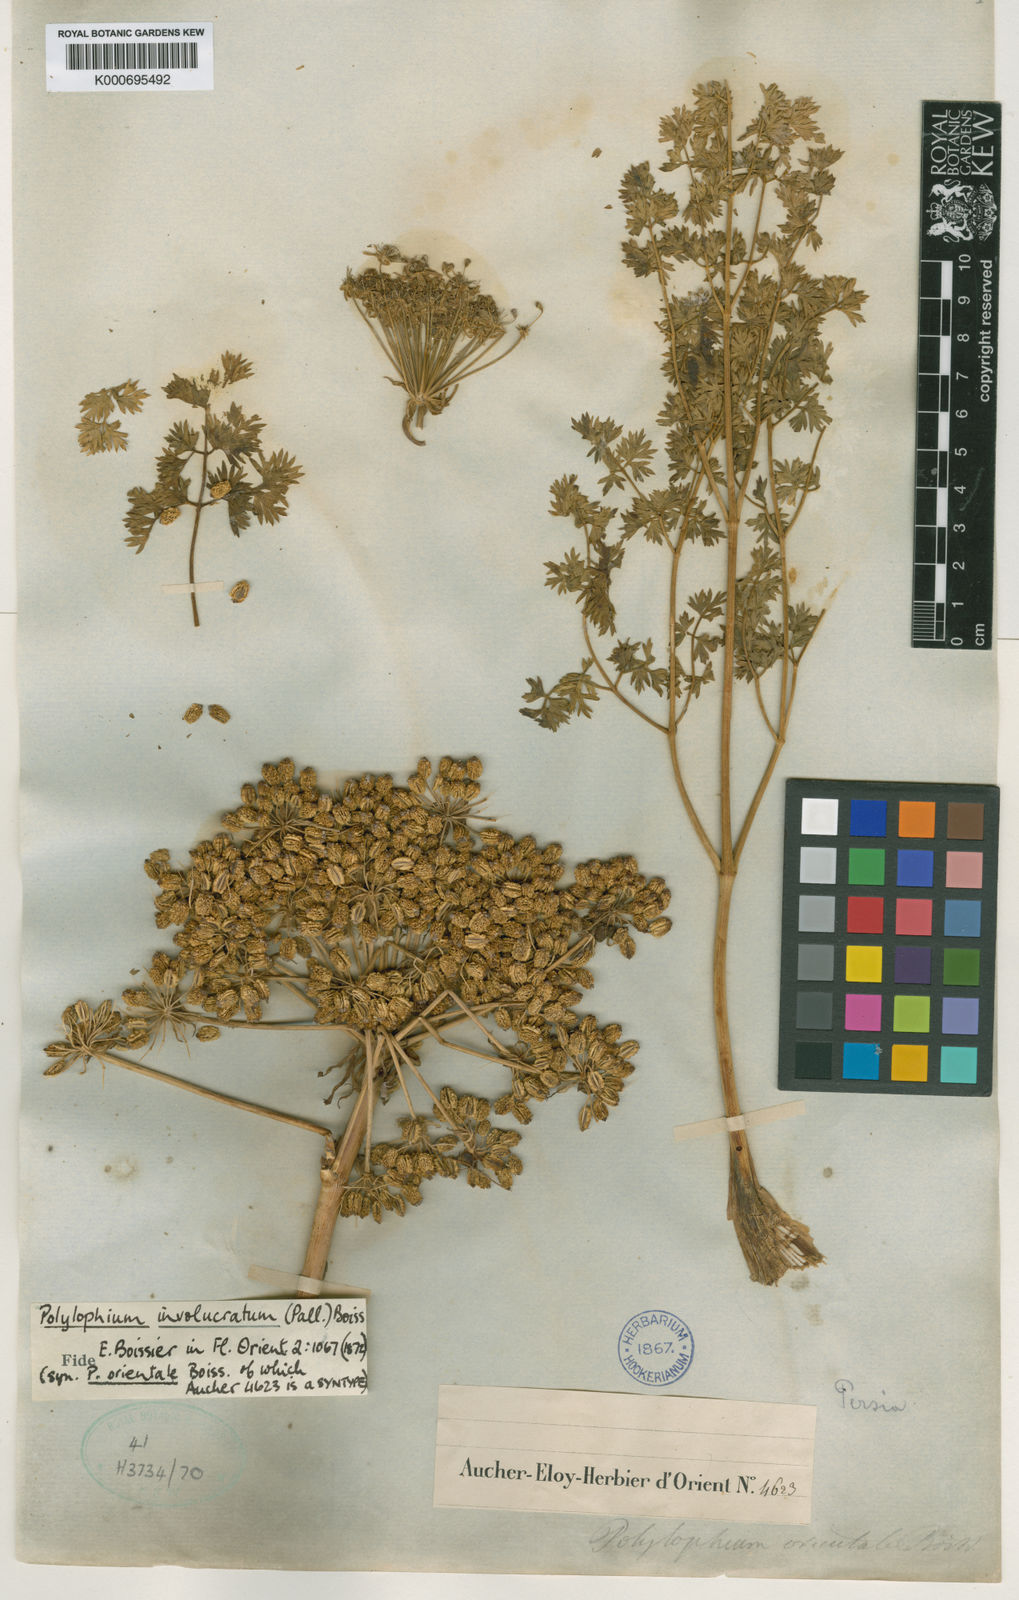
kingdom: Plantae
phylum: Tracheophyta
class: Magnoliopsida
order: Apiales
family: Apiaceae
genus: Laser
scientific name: Laser involucratum
